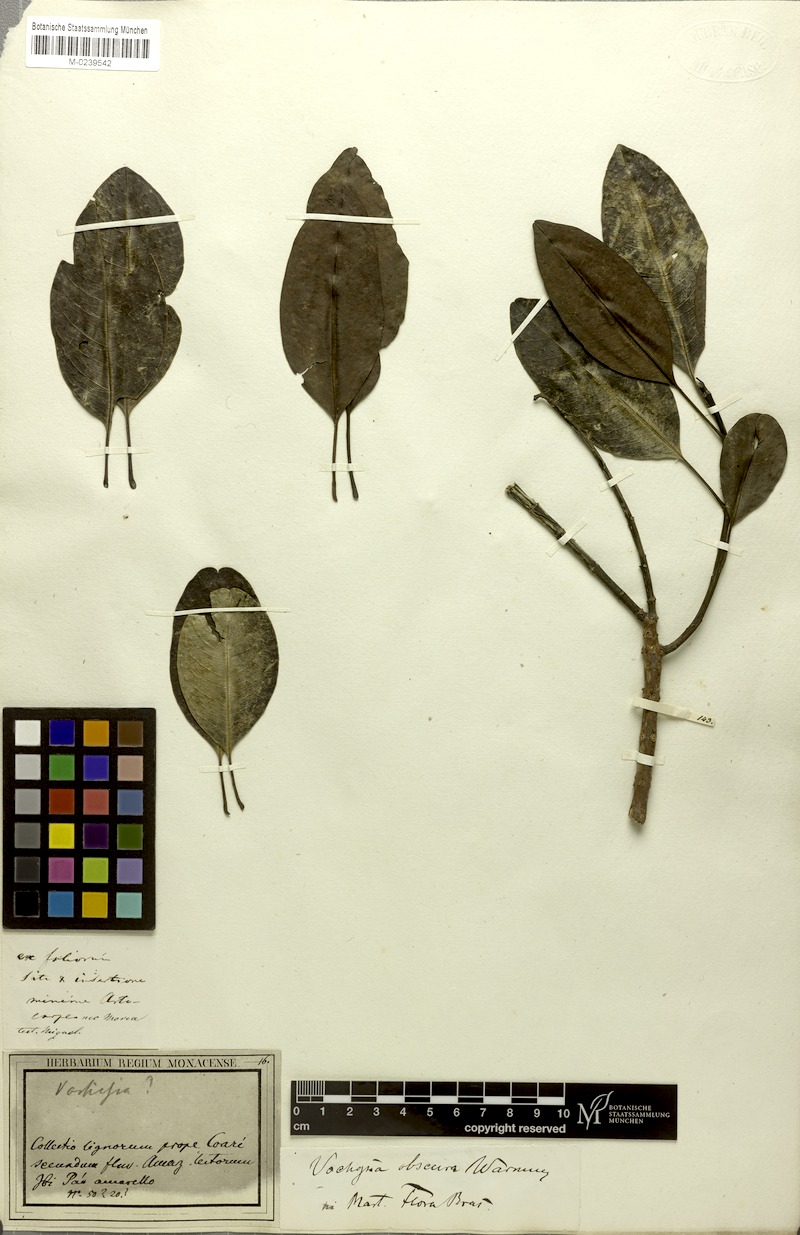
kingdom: Plantae
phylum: Tracheophyta
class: Magnoliopsida
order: Myrtales
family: Vochysiaceae
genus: Vochysia
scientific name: Vochysia obscura
